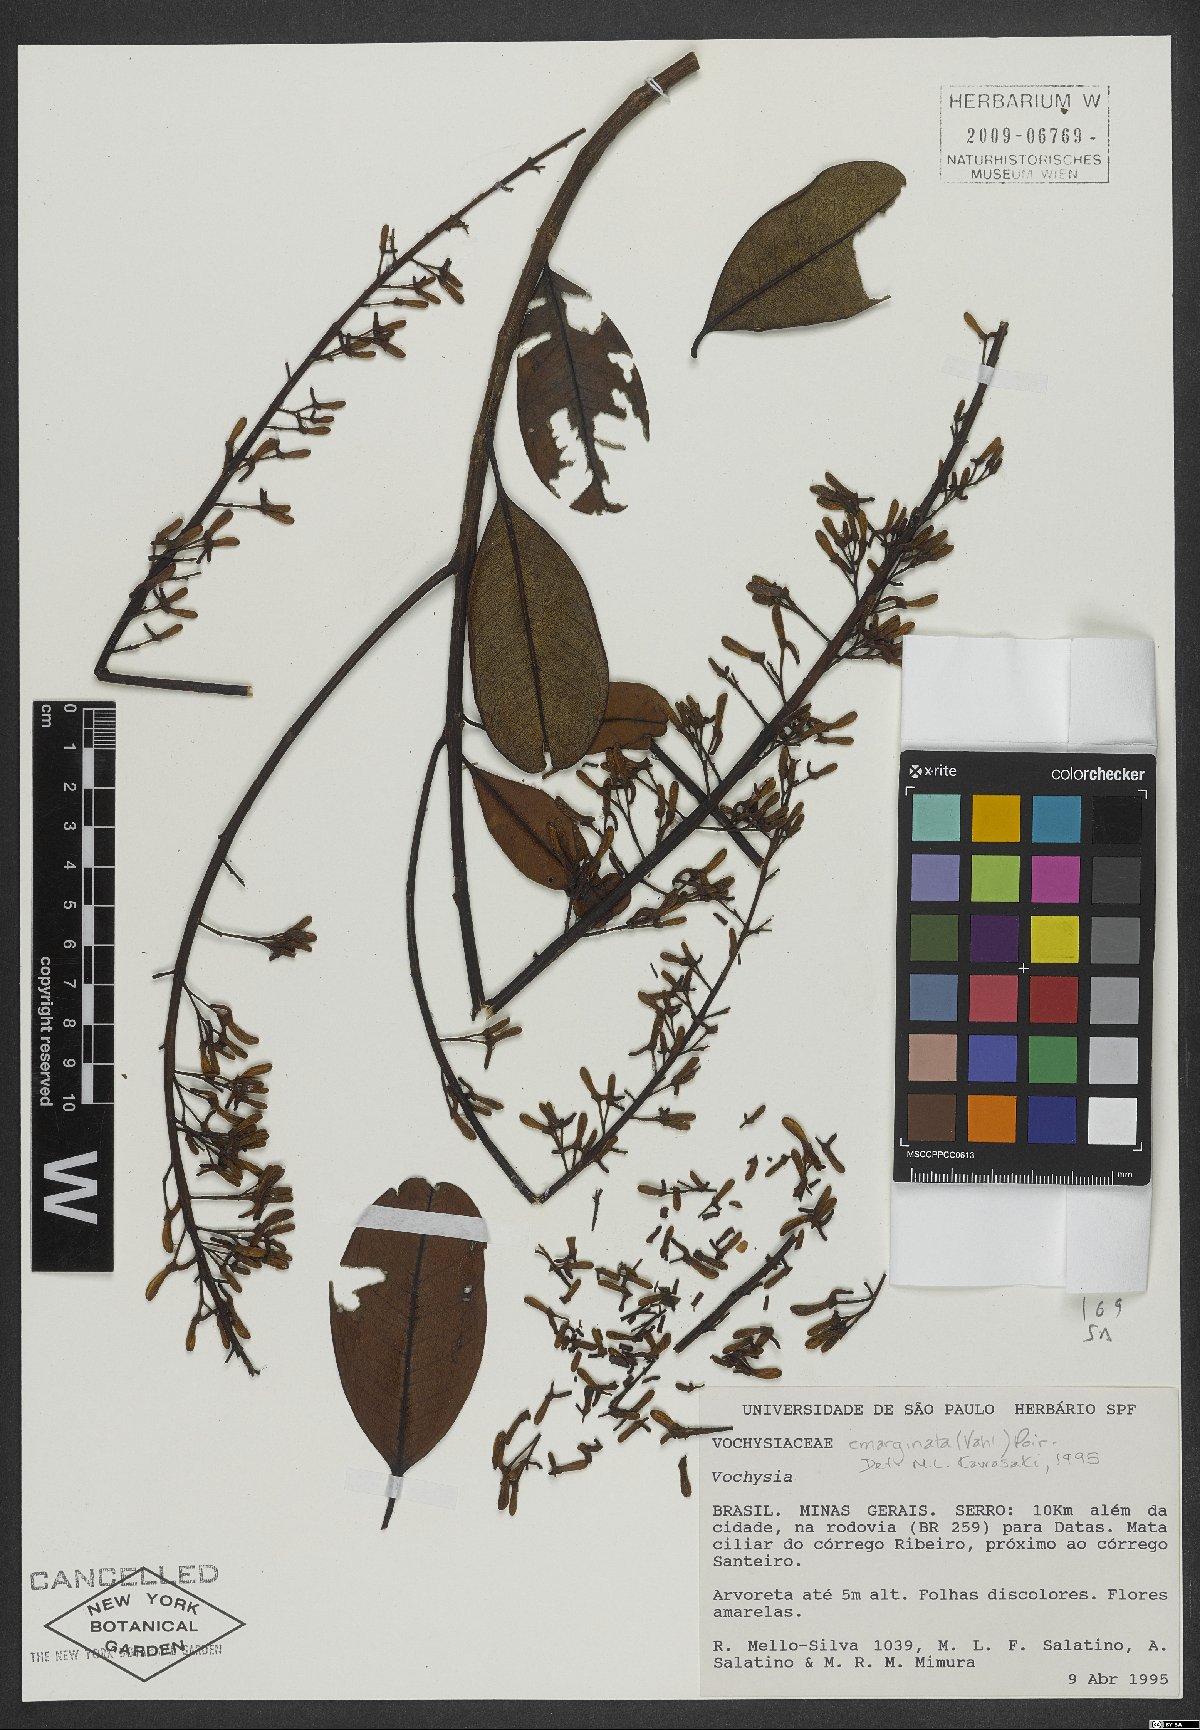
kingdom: Plantae
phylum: Tracheophyta
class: Magnoliopsida
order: Myrtales
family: Vochysiaceae
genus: Vochysia
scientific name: Vochysia emarginata
